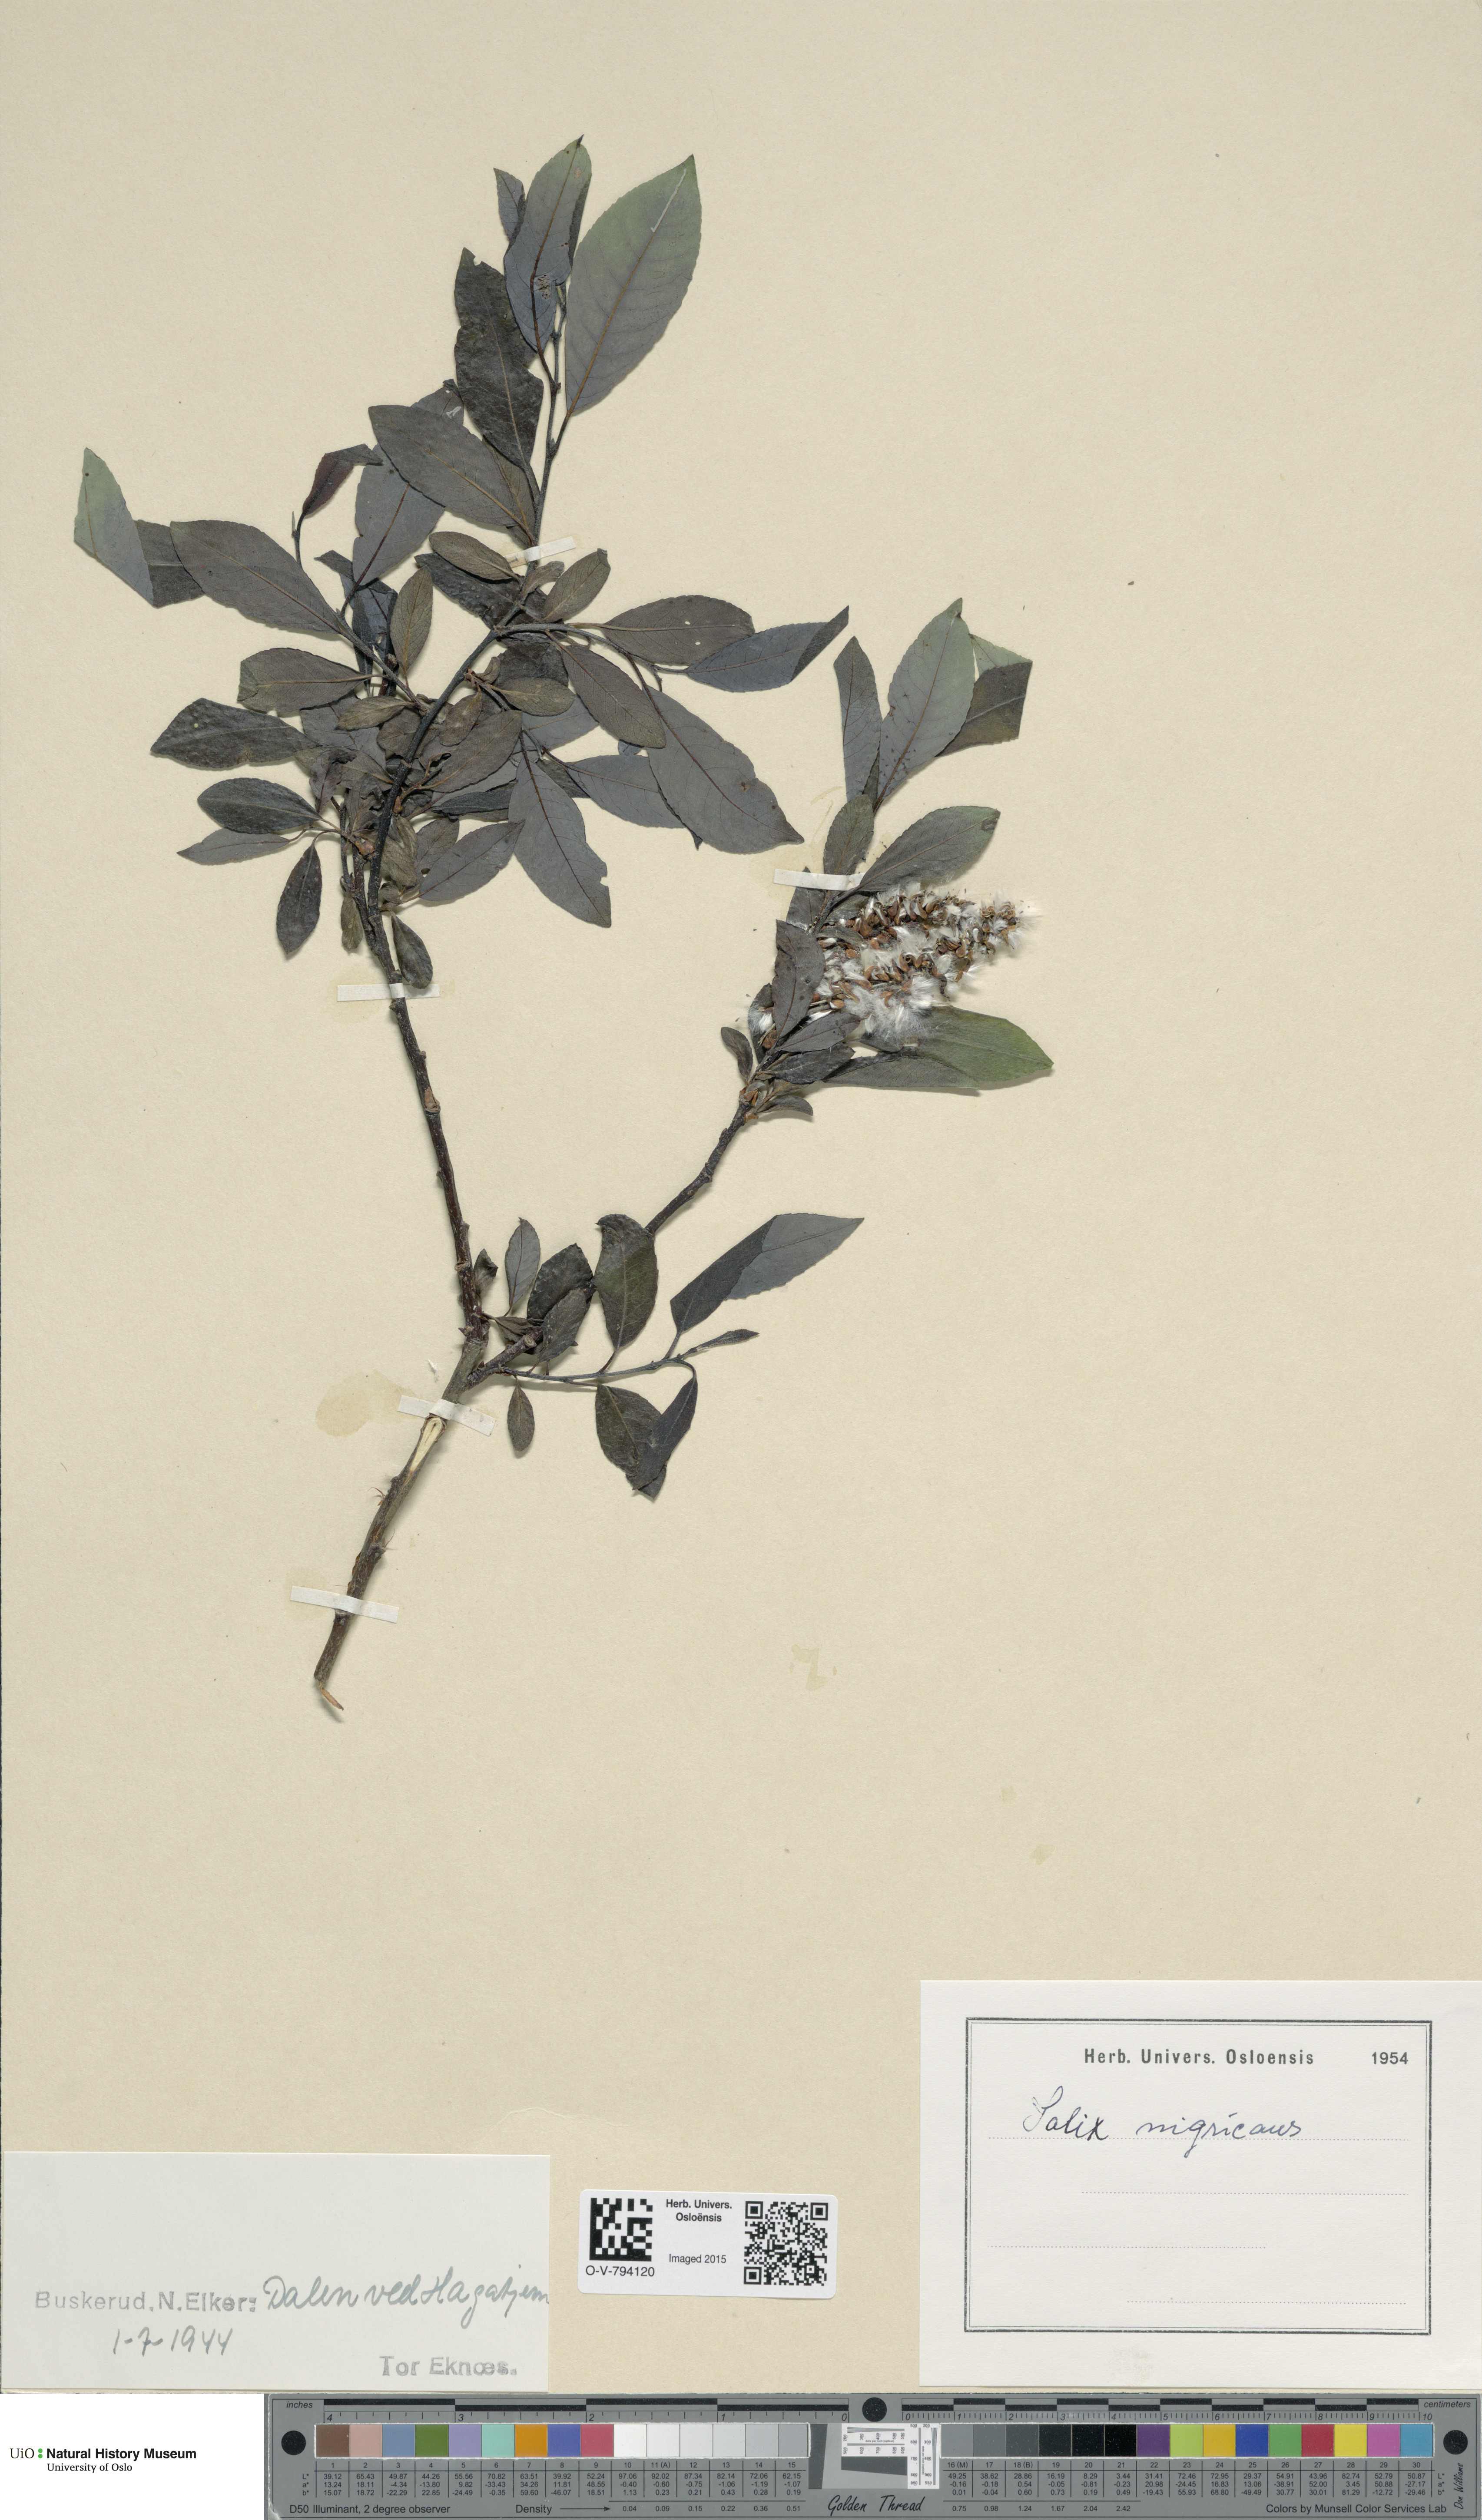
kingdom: Plantae
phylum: Tracheophyta
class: Magnoliopsida
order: Malpighiales
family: Salicaceae
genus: Salix
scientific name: Salix myrsinifolia
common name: Dark-leaved willow
